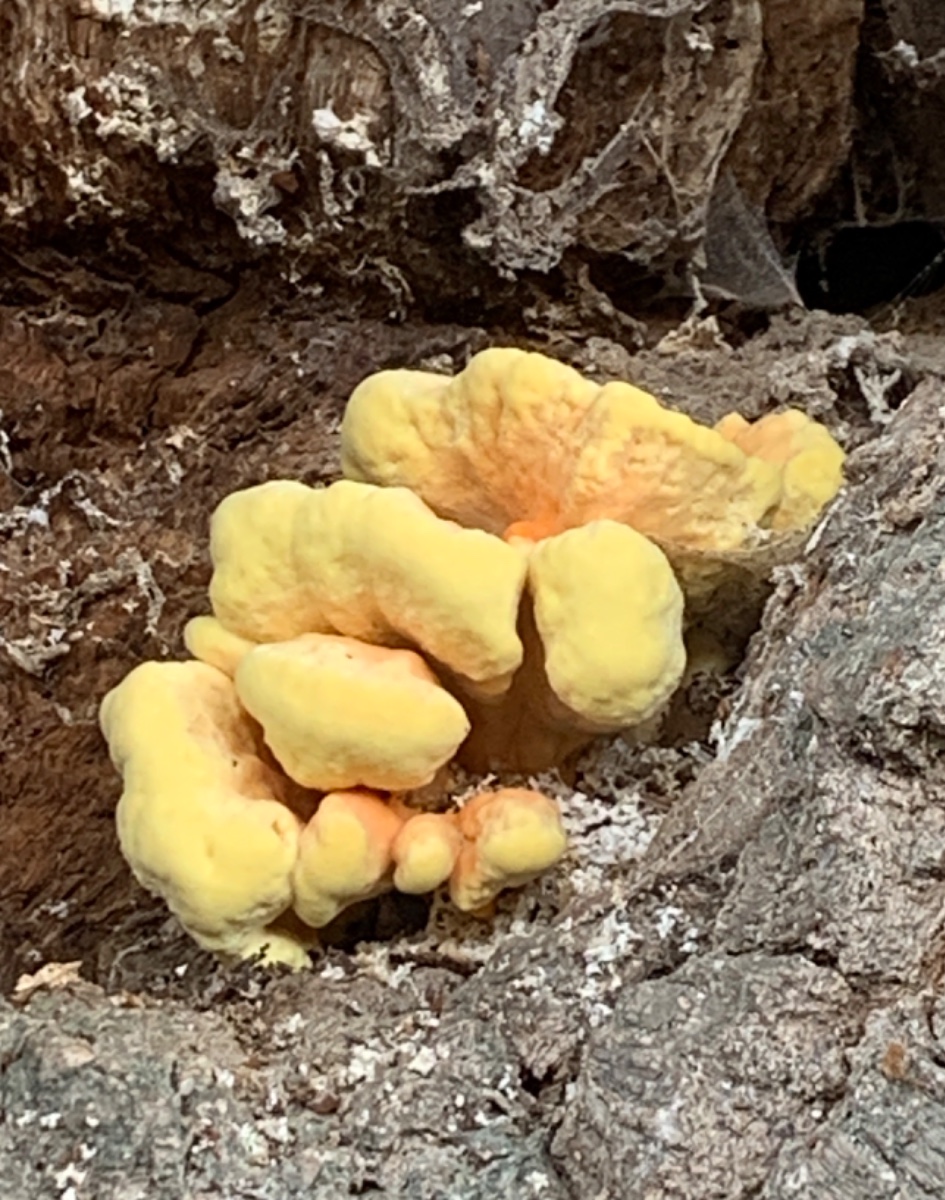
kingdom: Fungi
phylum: Basidiomycota
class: Agaricomycetes
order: Polyporales
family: Laetiporaceae
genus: Laetiporus
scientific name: Laetiporus sulphureus
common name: svovlporesvamp
